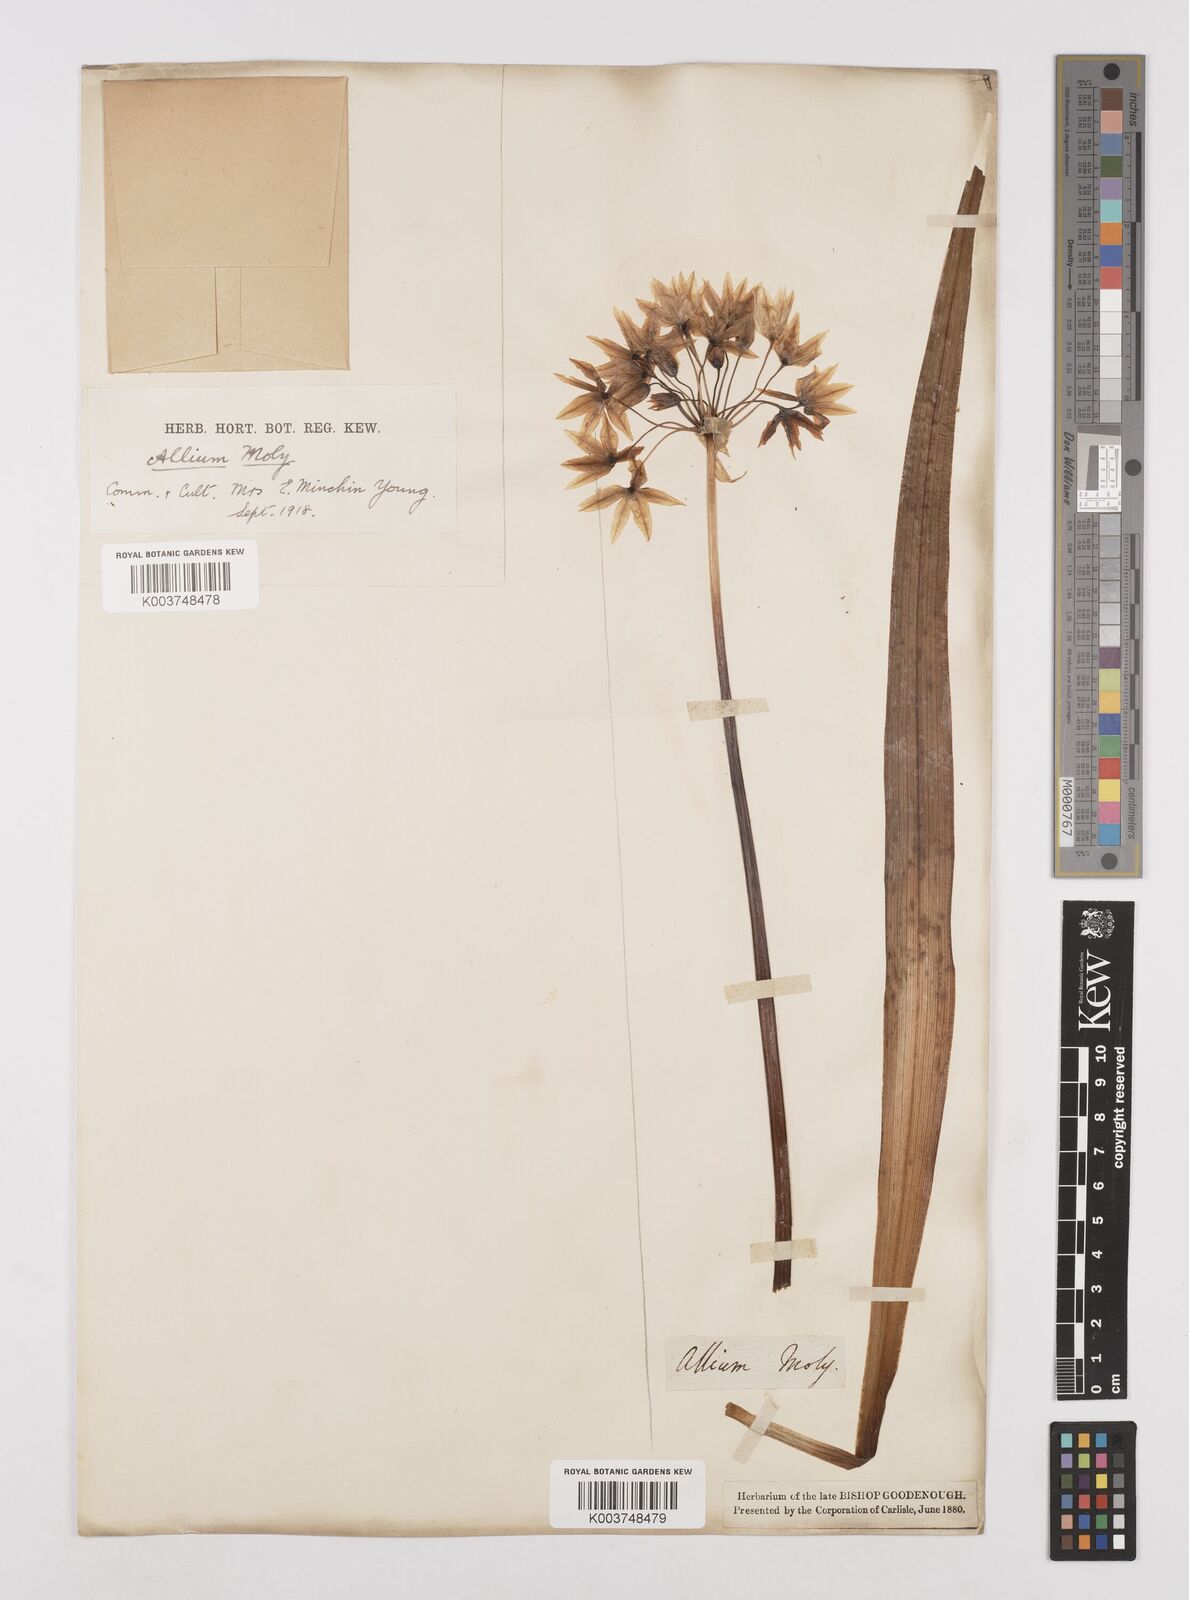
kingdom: Plantae
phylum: Tracheophyta
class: Liliopsida
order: Asparagales
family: Amaryllidaceae
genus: Allium
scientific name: Allium moly
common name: Yellow garlic
